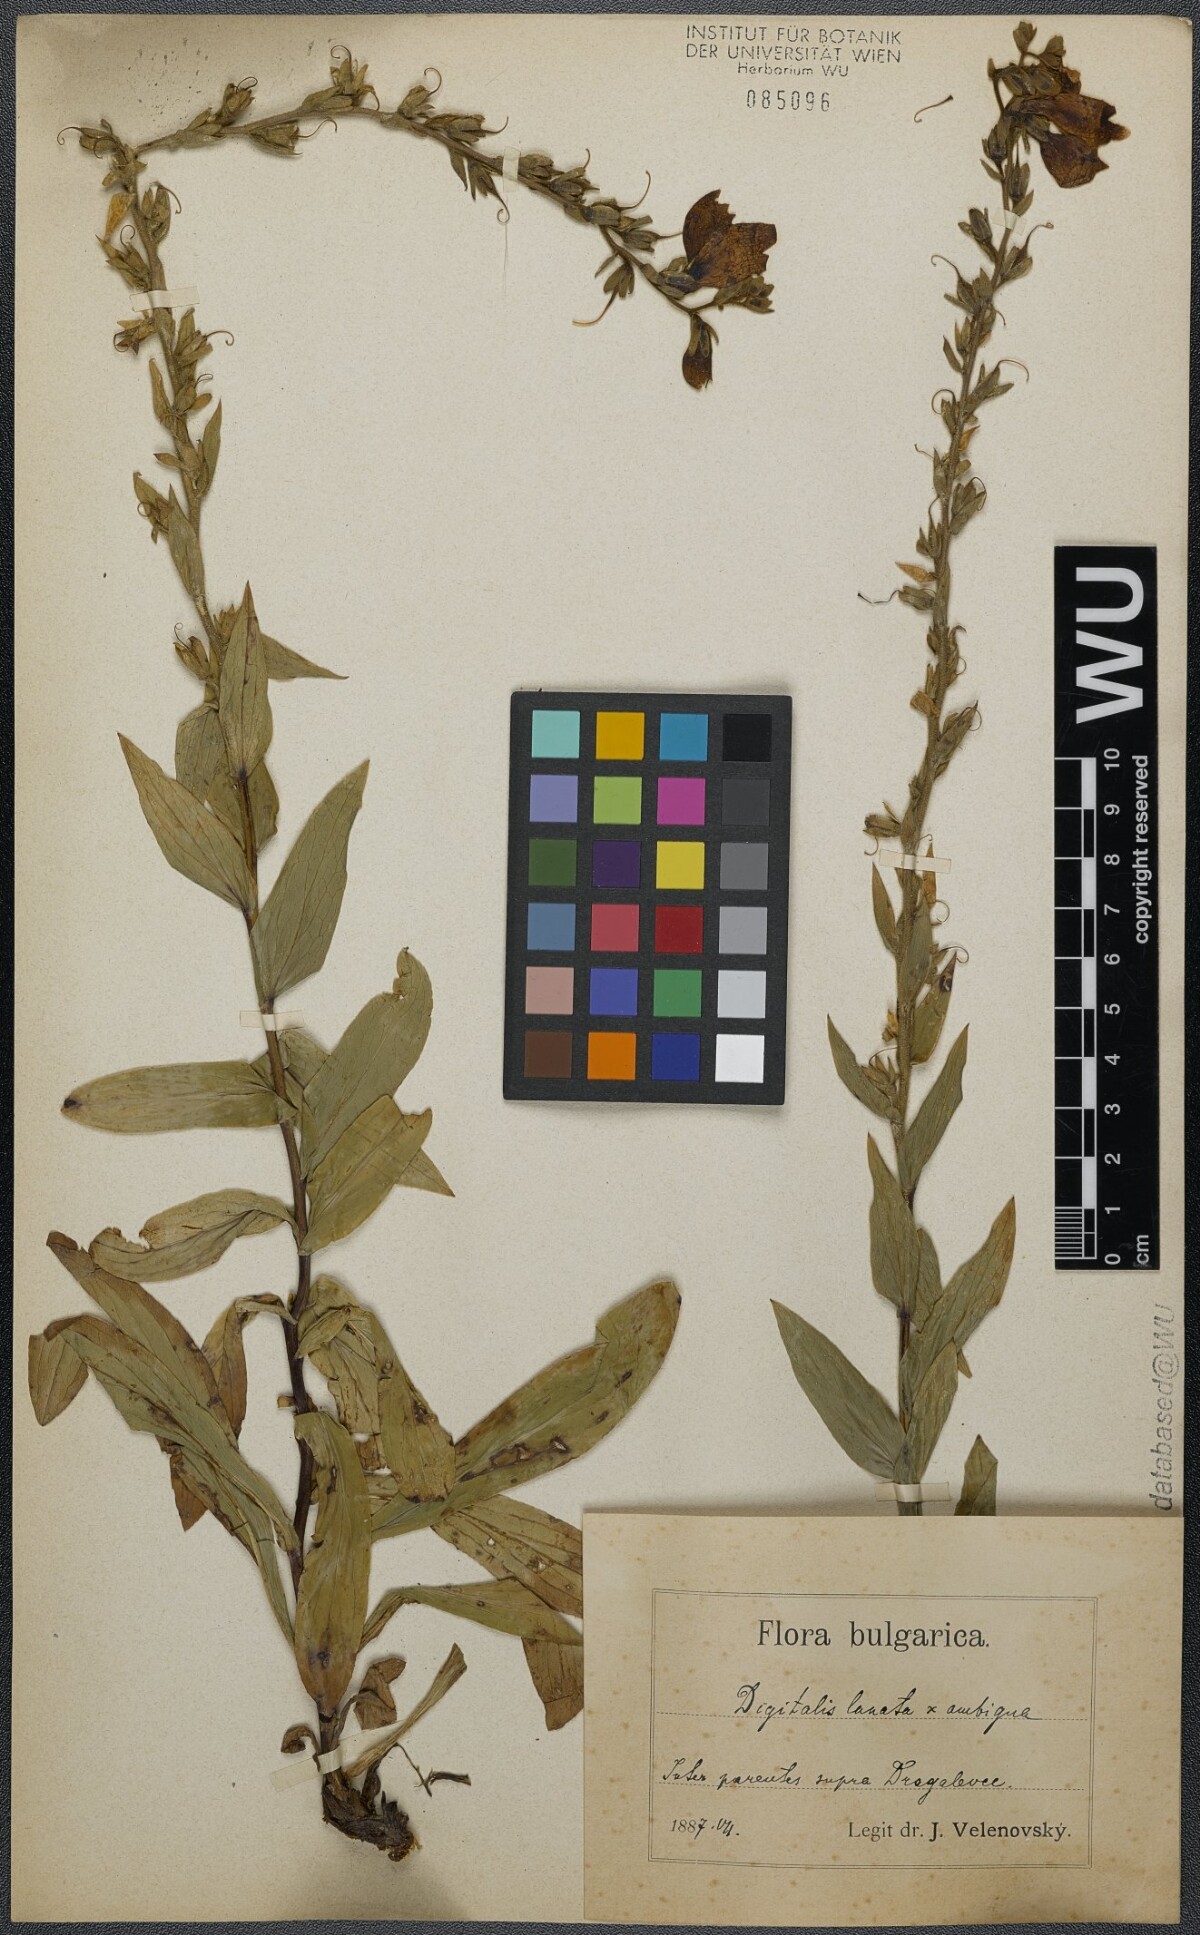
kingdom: Plantae
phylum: Tracheophyta
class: Magnoliopsida
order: Lamiales
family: Plantaginaceae
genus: Digitalis
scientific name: Digitalis fulva
